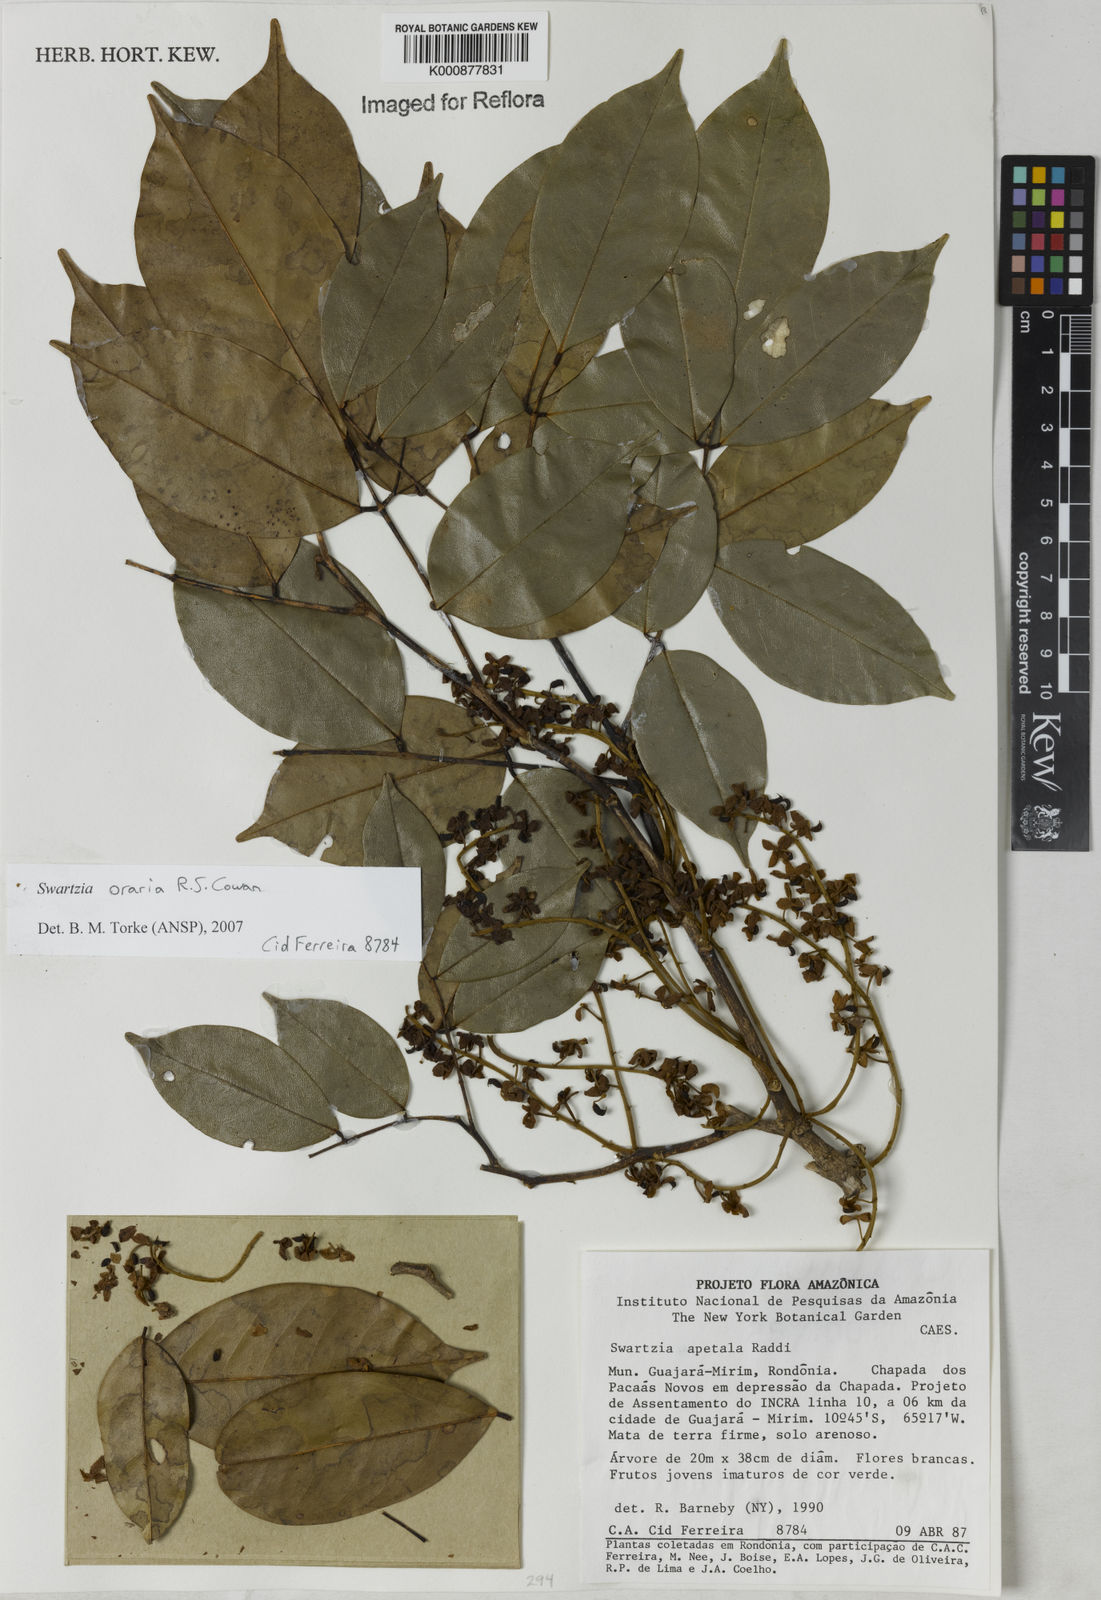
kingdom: Plantae
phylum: Tracheophyta
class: Magnoliopsida
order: Fabales
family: Fabaceae
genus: Swartzia
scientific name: Swartzia oraria
